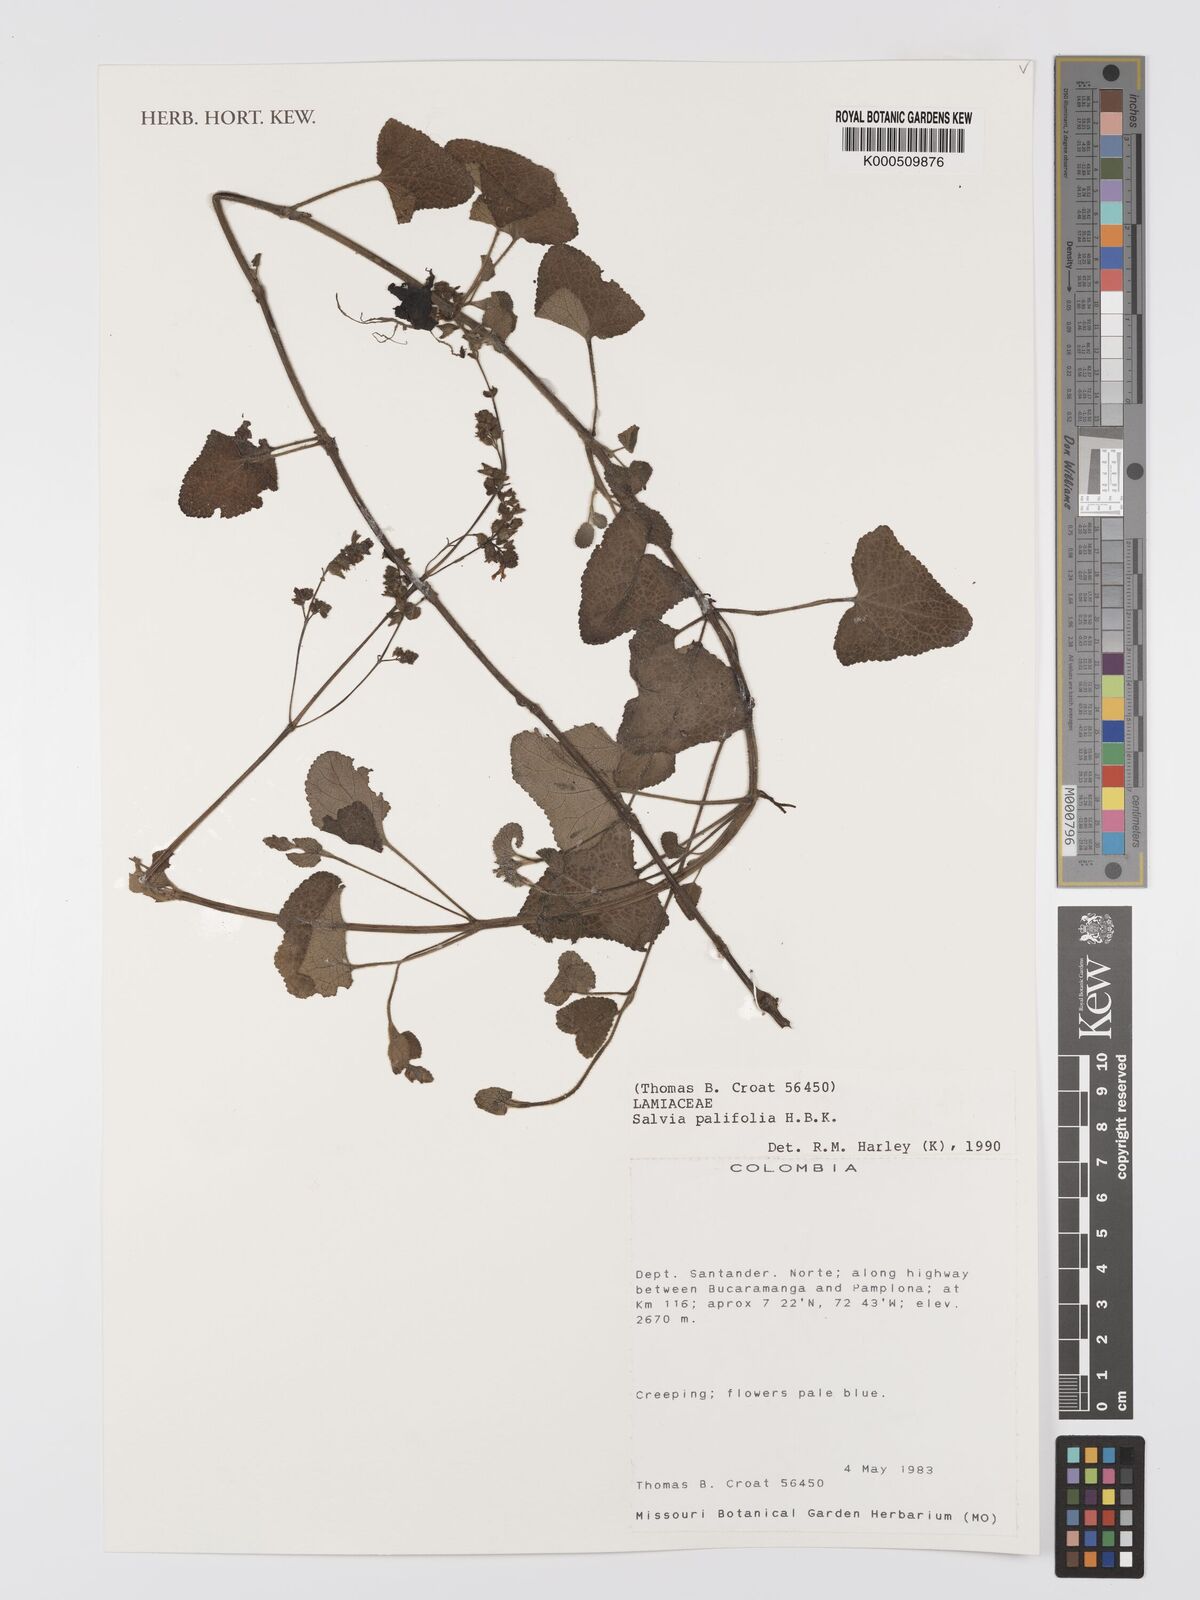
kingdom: Plantae
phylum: Tracheophyta
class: Magnoliopsida
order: Lamiales
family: Lamiaceae
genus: Salvia
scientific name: Salvia
